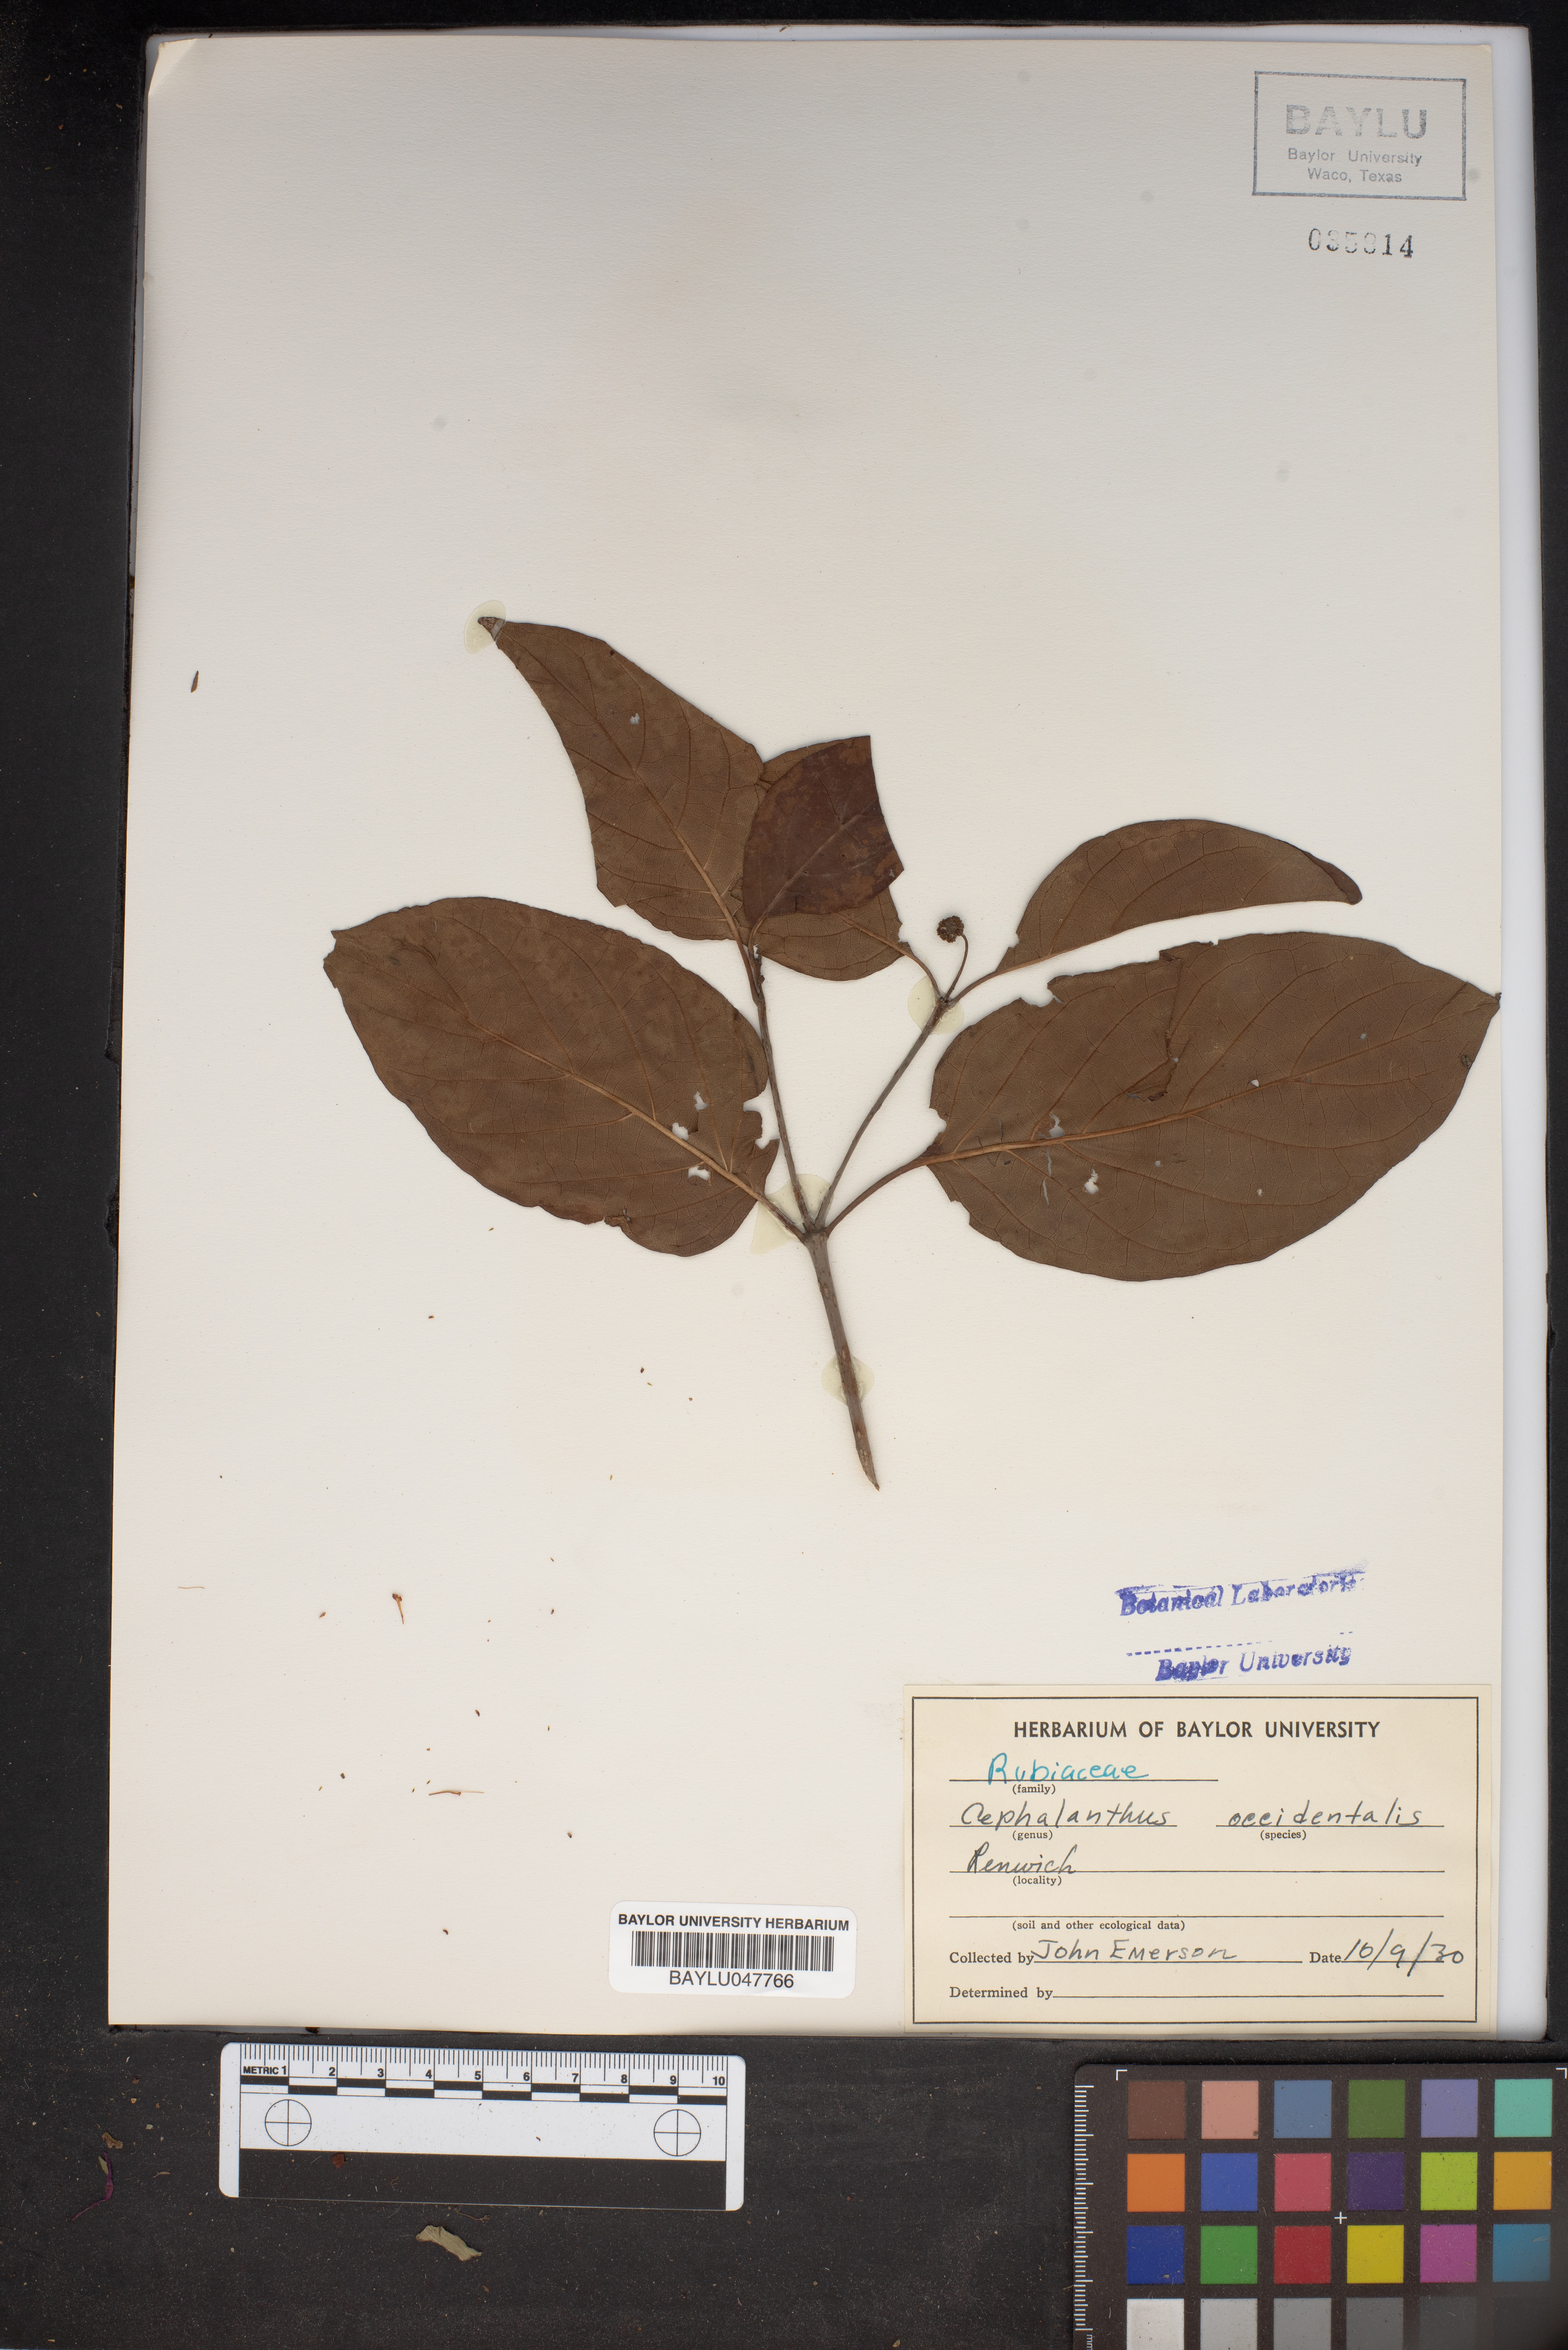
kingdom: Plantae
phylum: Tracheophyta
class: Magnoliopsida
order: Gentianales
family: Rubiaceae
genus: Cephalanthus
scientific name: Cephalanthus occidentalis
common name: Button-willow
